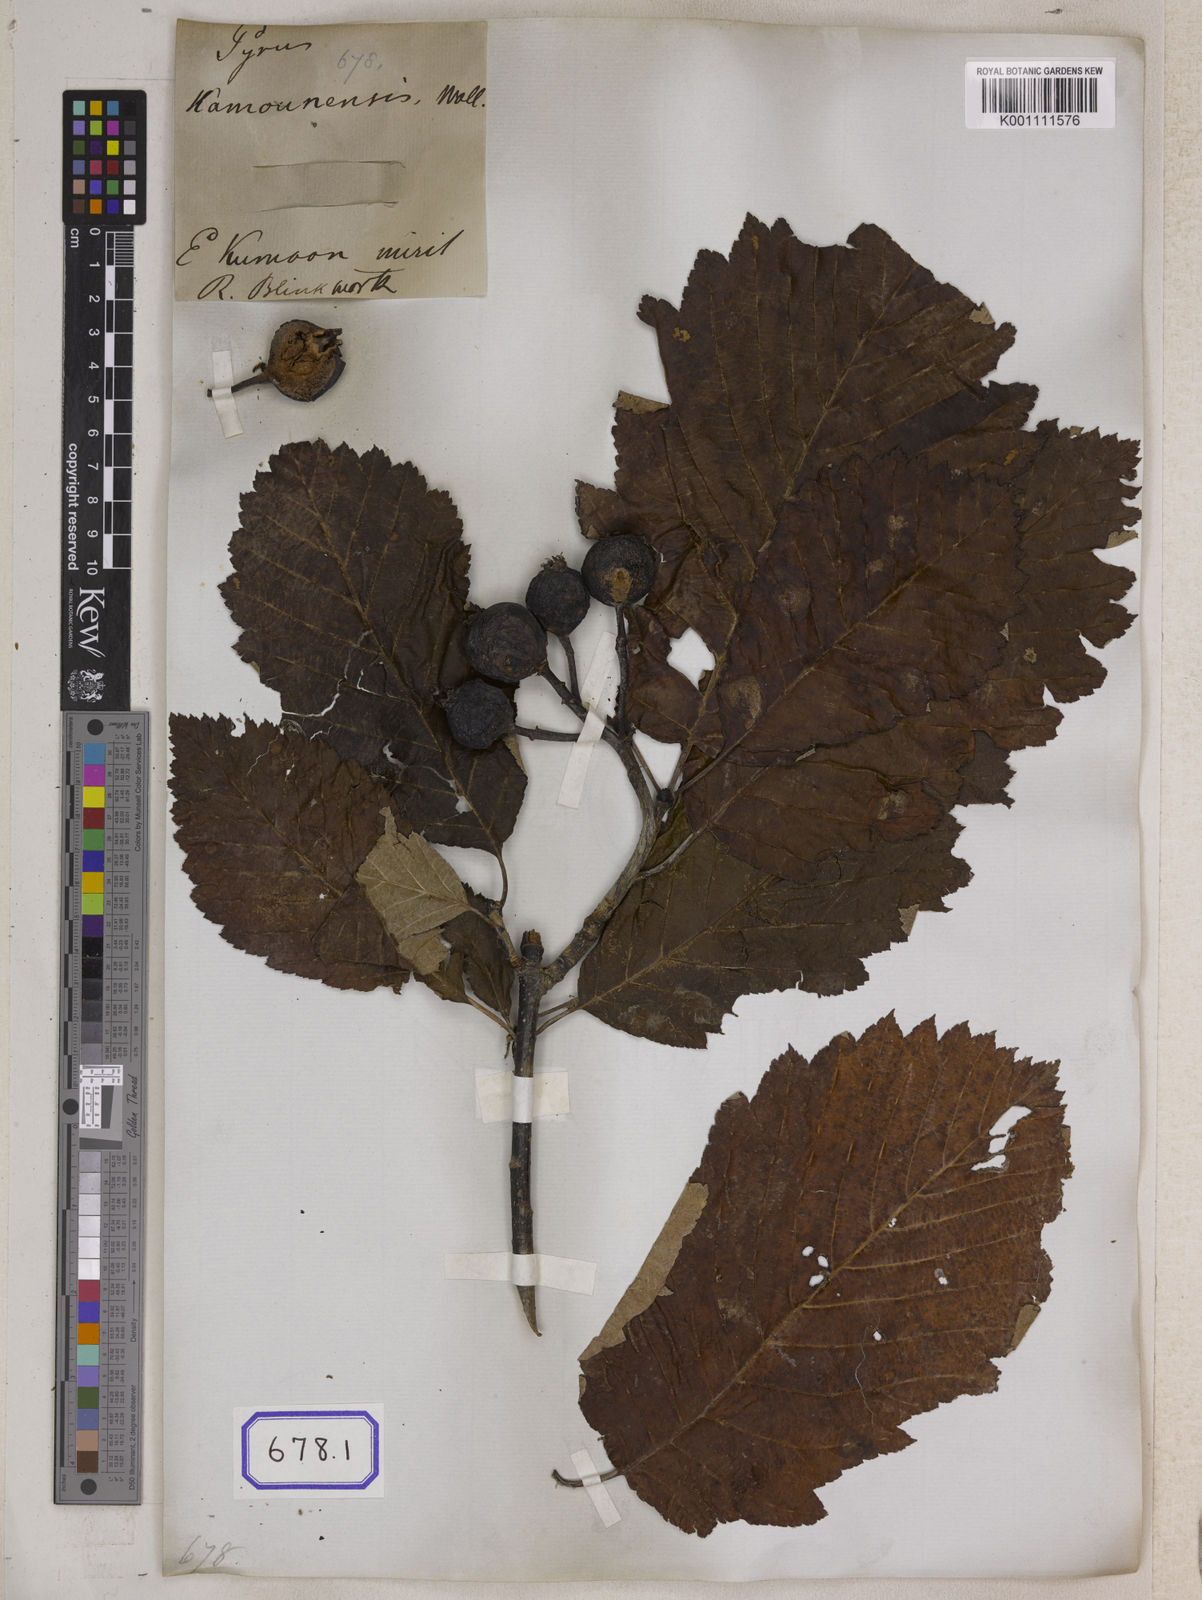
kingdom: Plantae
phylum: Tracheophyta
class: Magnoliopsida
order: Rosales
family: Rosaceae
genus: Pyrus
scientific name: Pyrus kamounensis
